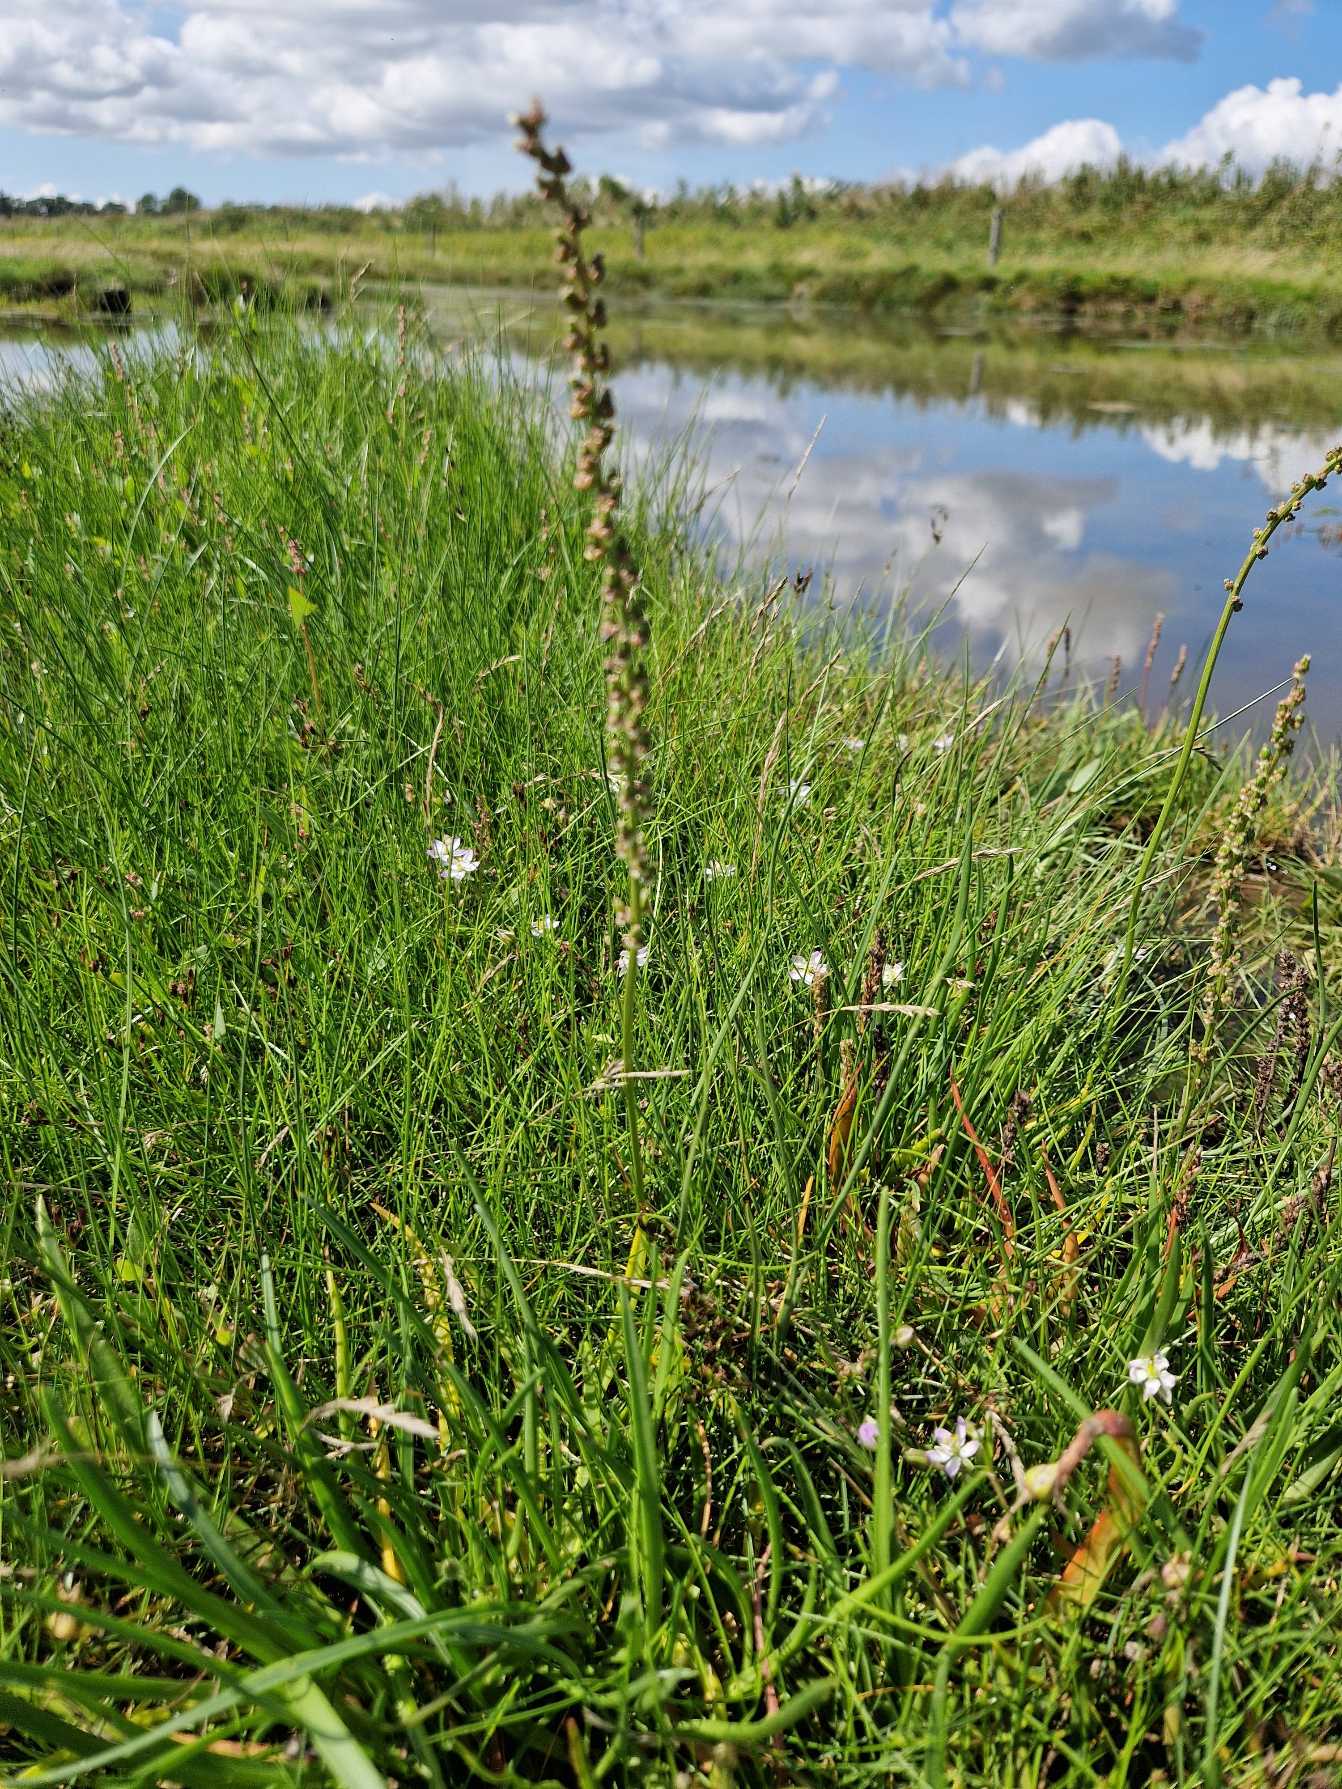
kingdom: Plantae
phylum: Tracheophyta
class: Liliopsida
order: Alismatales
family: Juncaginaceae
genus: Triglochin
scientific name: Triglochin maritima
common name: Strand-trehage
